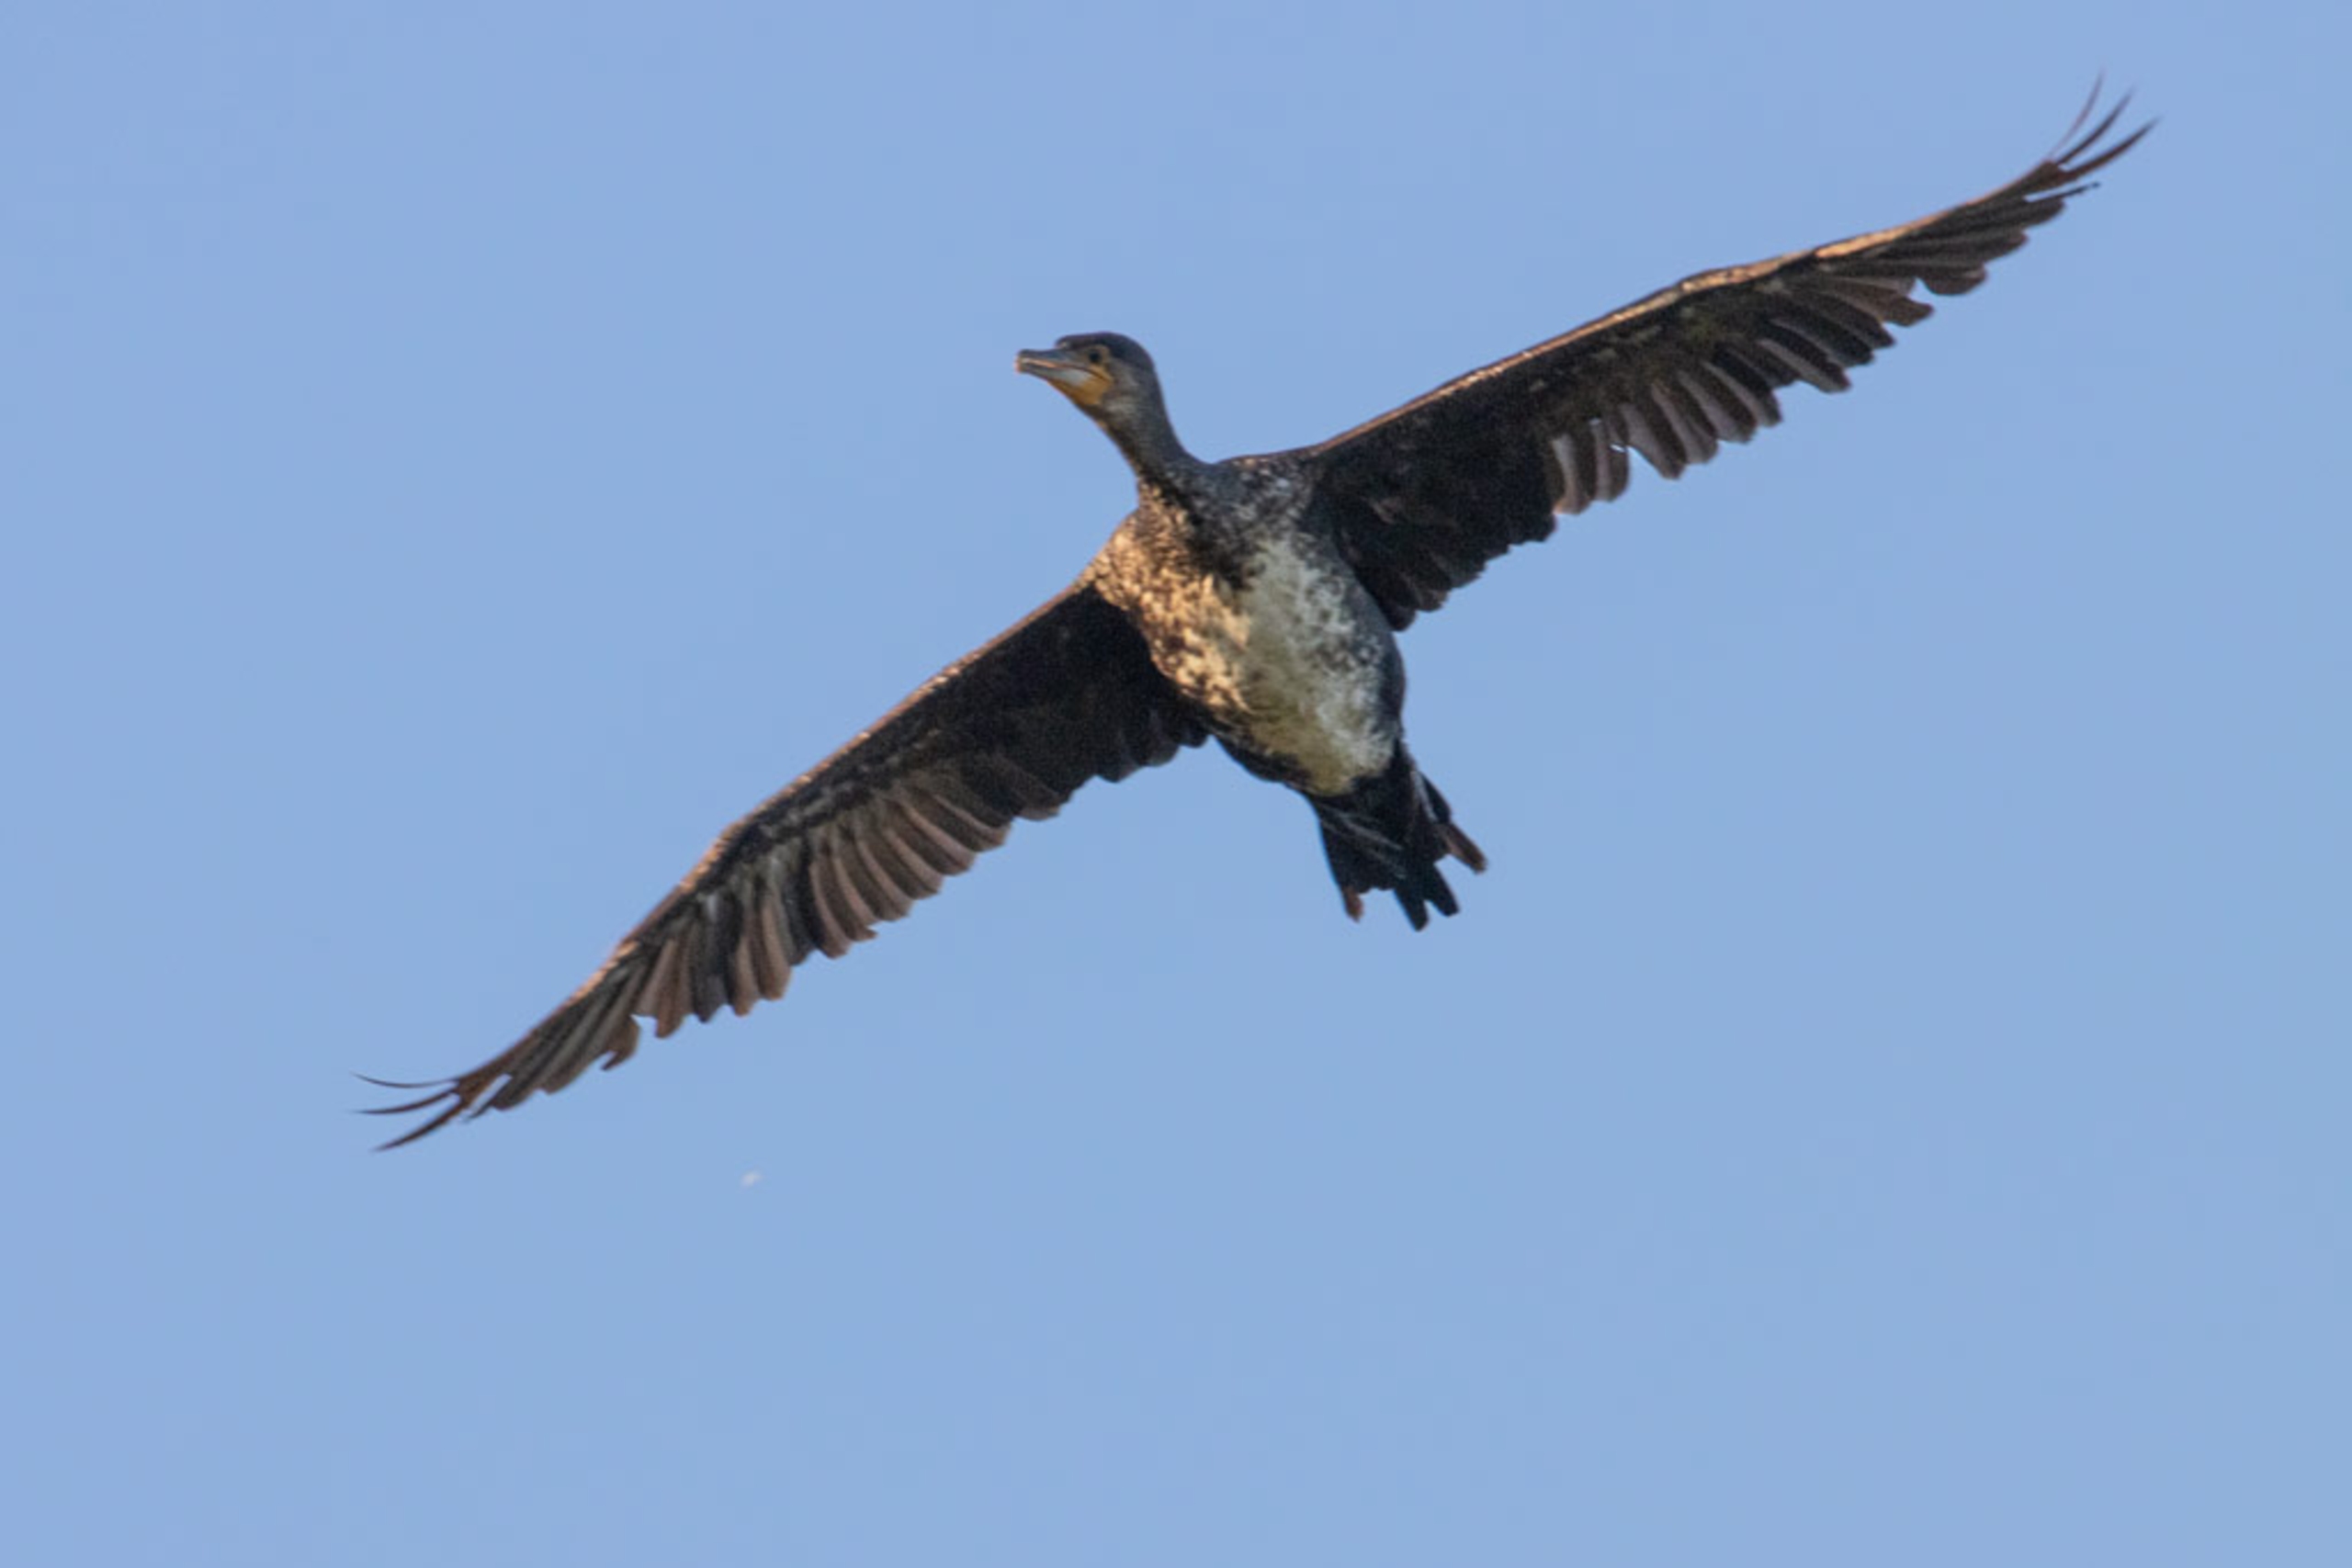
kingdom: Animalia
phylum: Chordata
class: Aves
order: Suliformes
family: Phalacrocoracidae
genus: Phalacrocorax
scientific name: Phalacrocorax carbo
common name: Skarv
